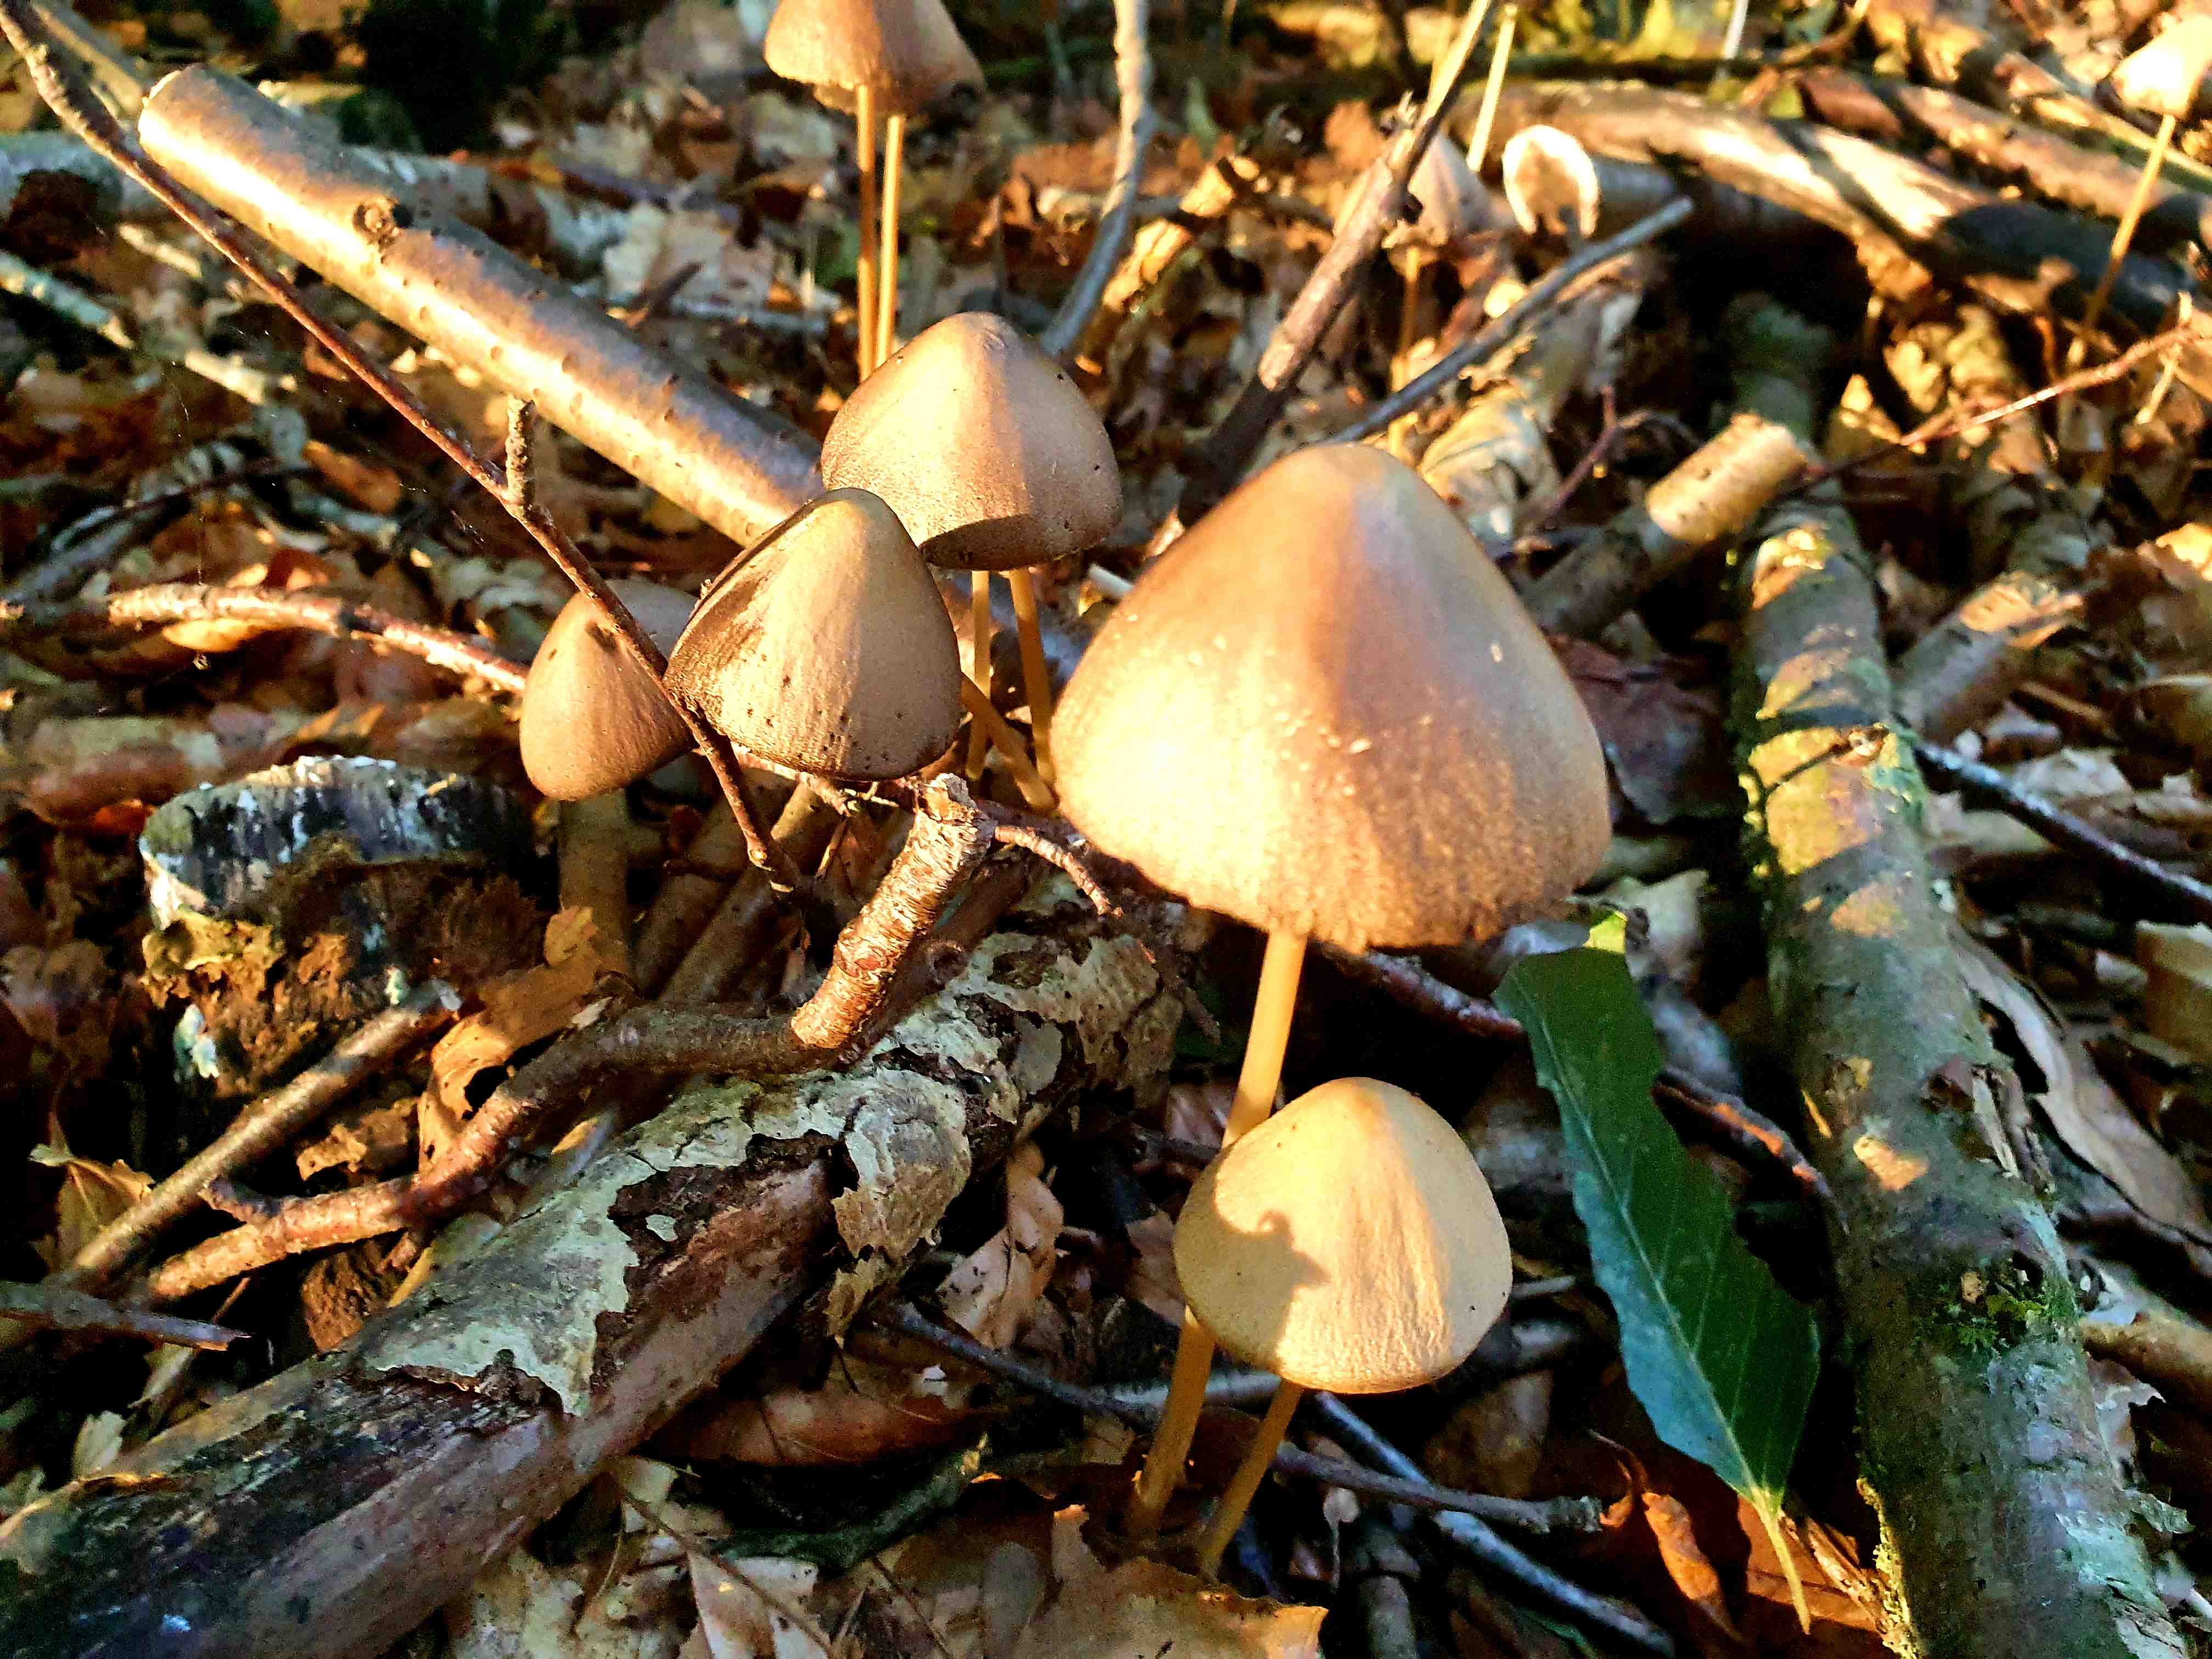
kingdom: Fungi
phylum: Basidiomycota
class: Agaricomycetes
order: Agaricales
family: Psathyrellaceae
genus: Parasola
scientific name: Parasola conopilea
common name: kegle-hjulhat
